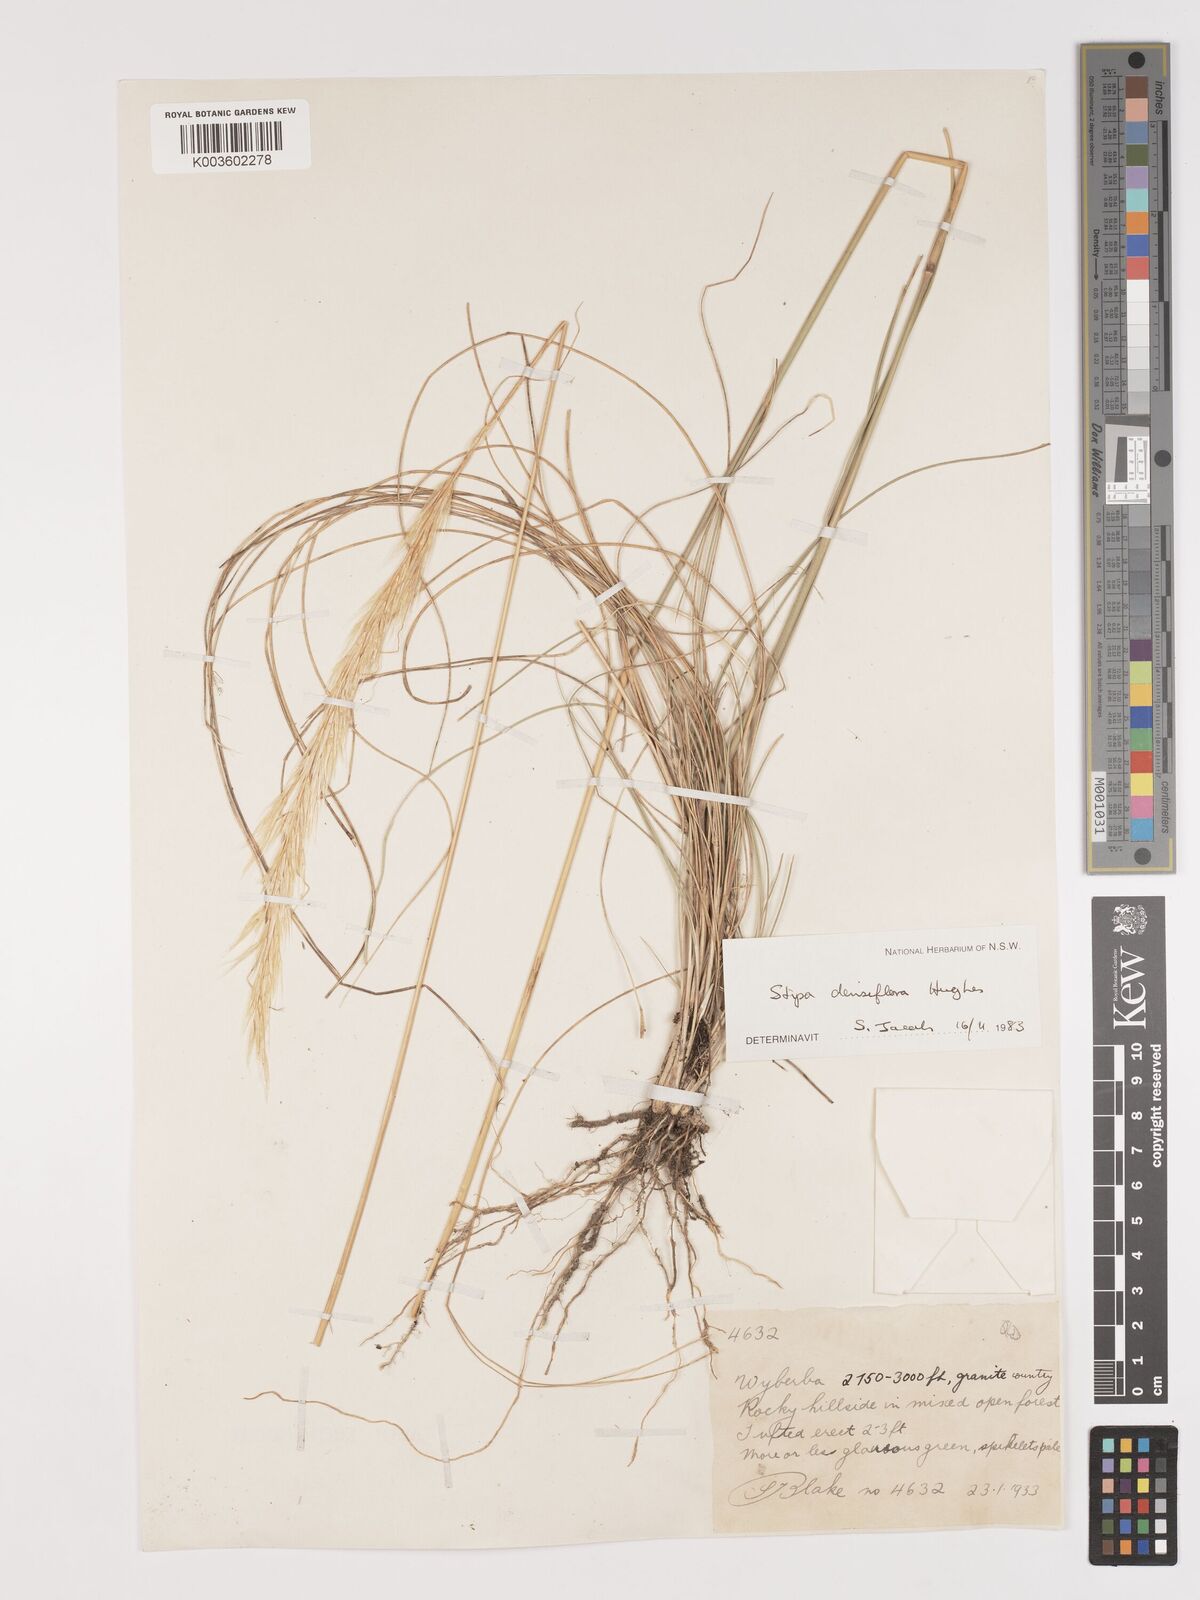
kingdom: Plantae
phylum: Tracheophyta
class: Liliopsida
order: Poales
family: Poaceae
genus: Stipa
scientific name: Stipa
